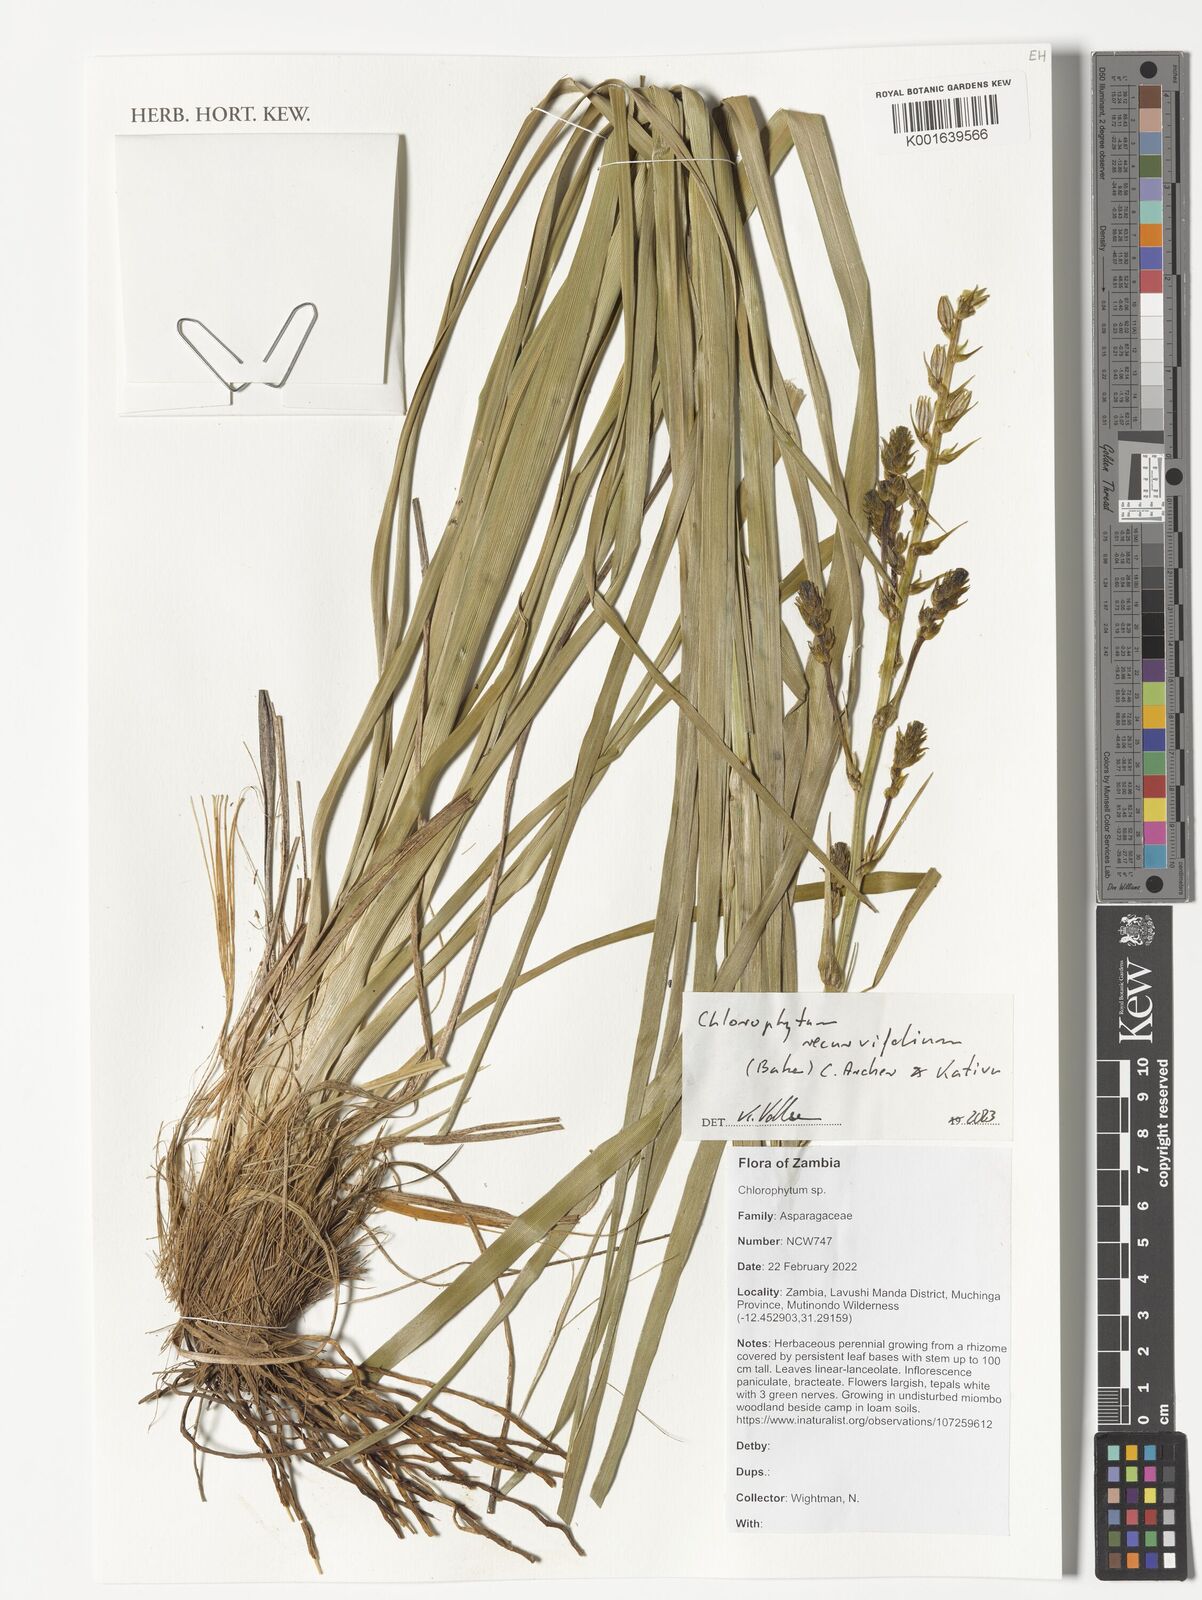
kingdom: Plantae
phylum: Tracheophyta
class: Liliopsida
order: Asparagales
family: Asparagaceae
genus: Chlorophytum
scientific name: Chlorophytum recurvifolium
